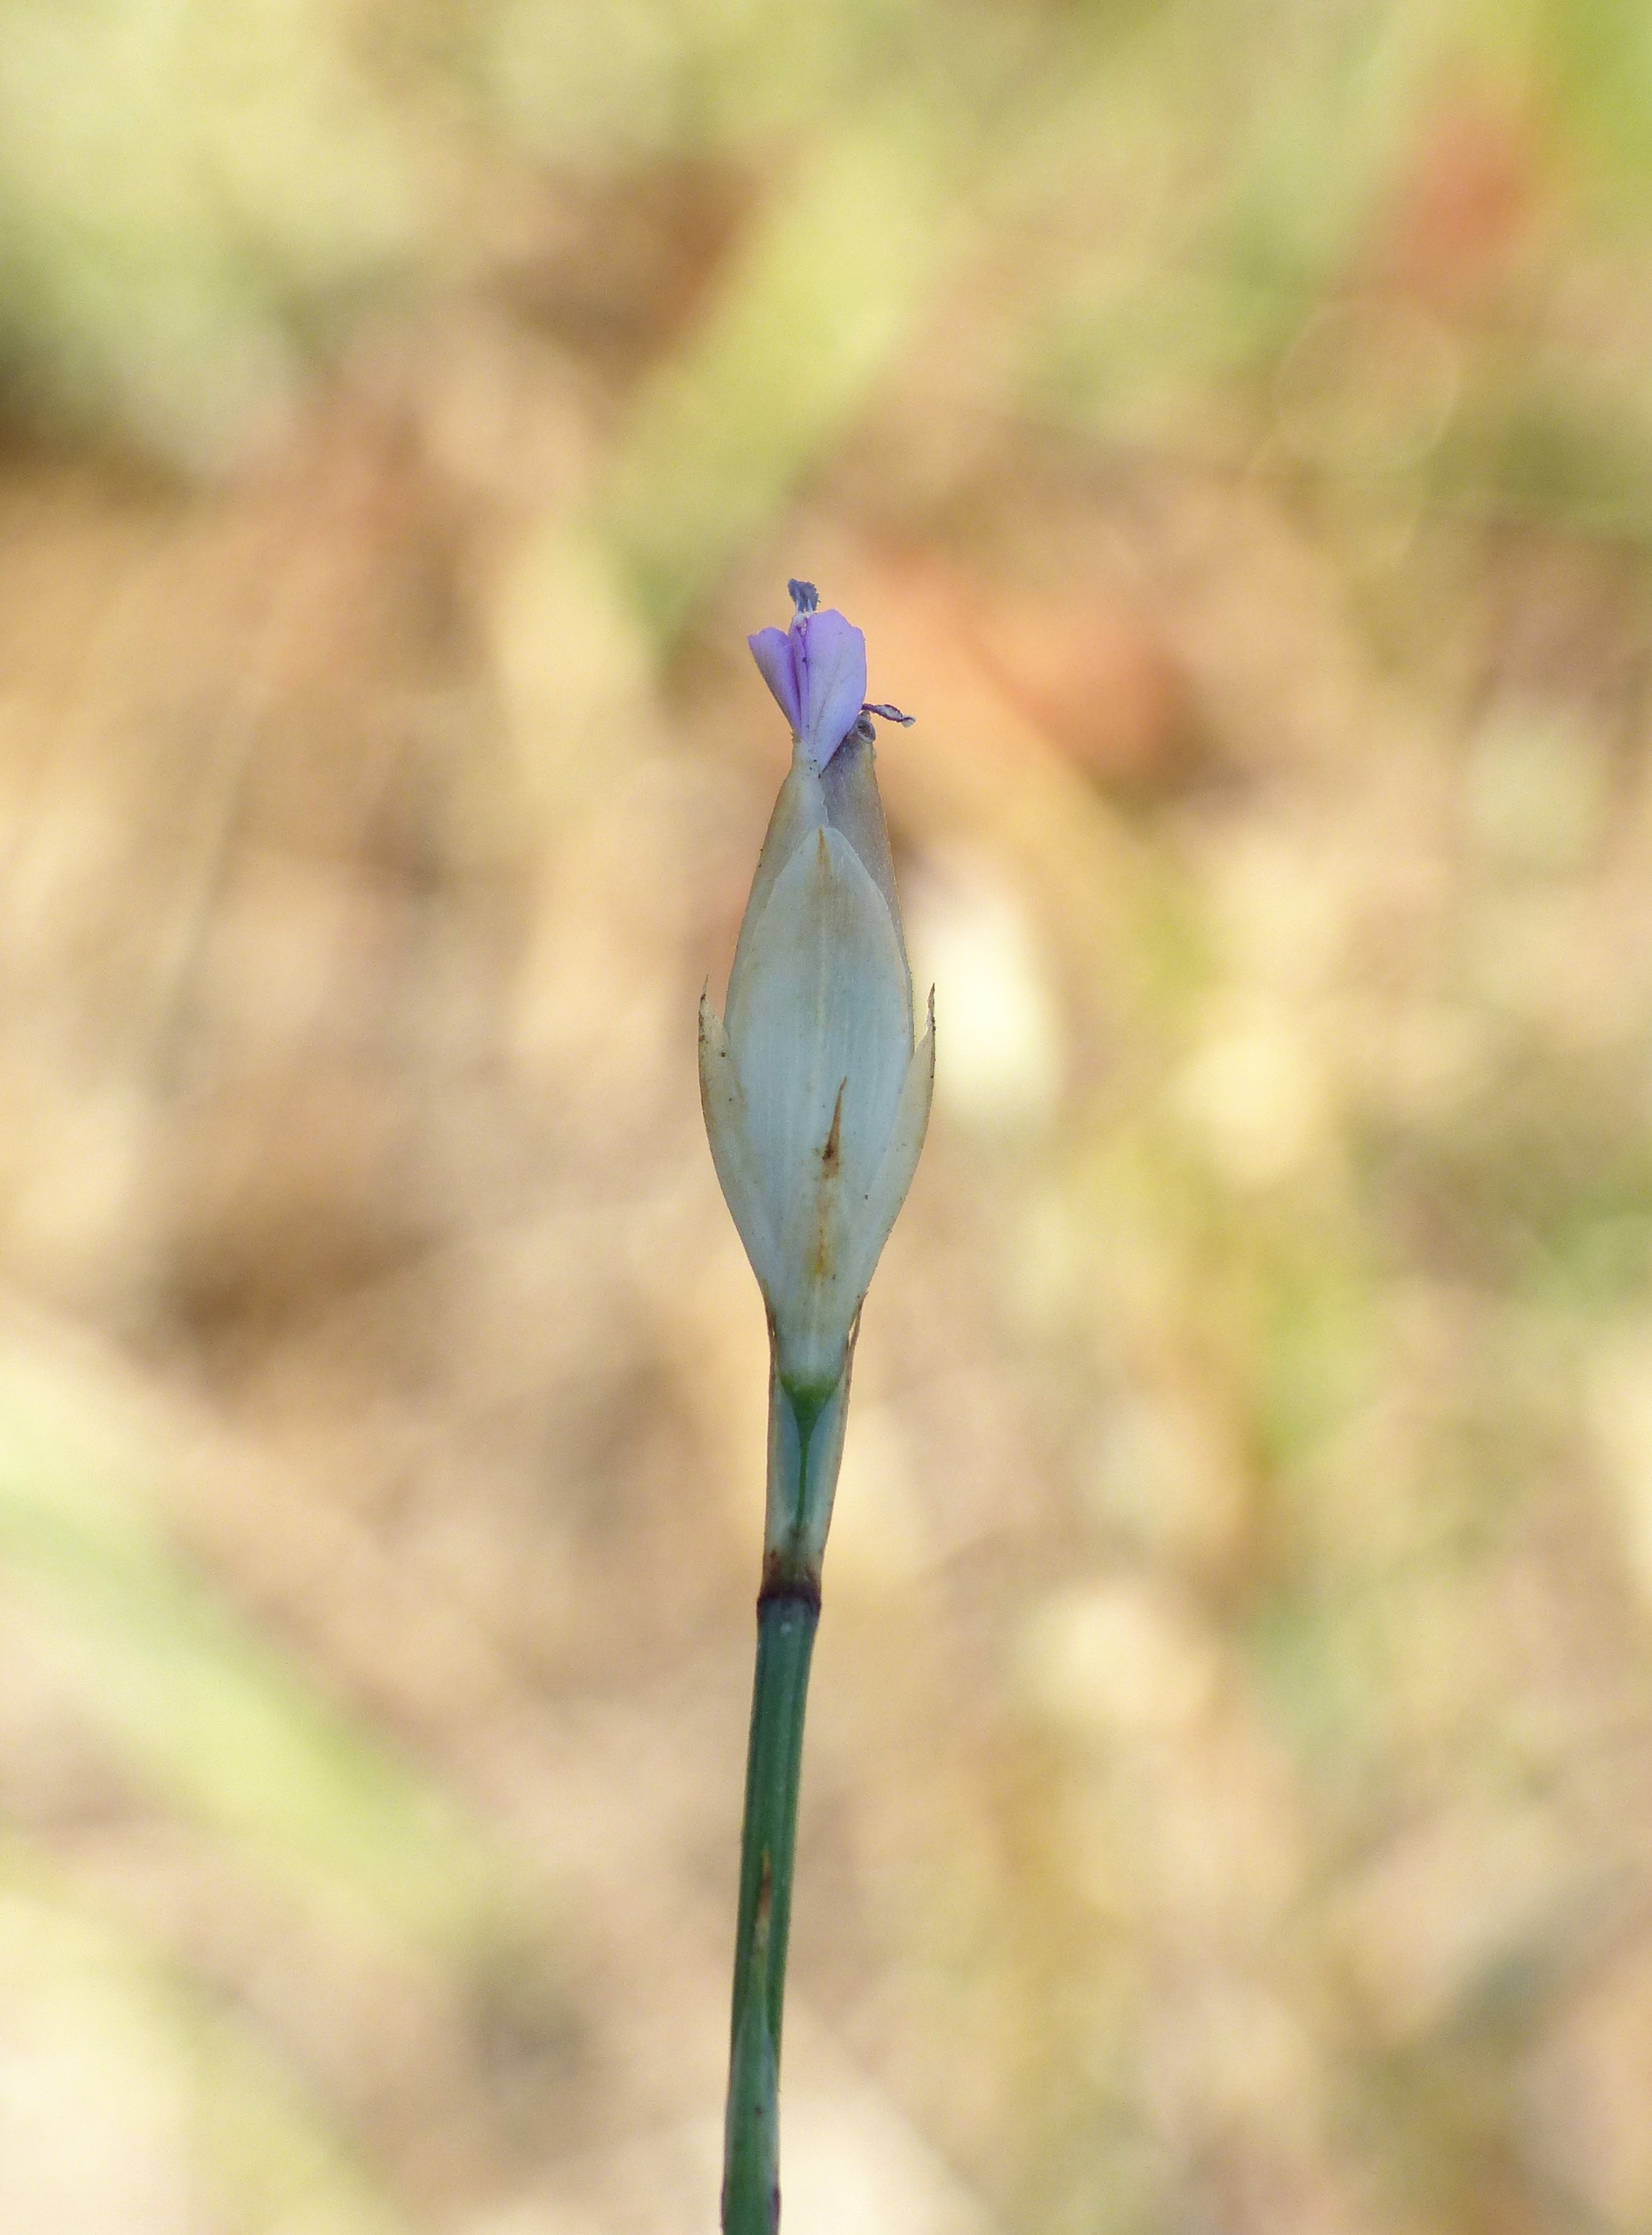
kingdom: Plantae
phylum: Tracheophyta
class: Magnoliopsida
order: Caryophyllales
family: Caryophyllaceae
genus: Petrorhagia
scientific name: Petrorhagia prolifera
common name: Knopnellike
